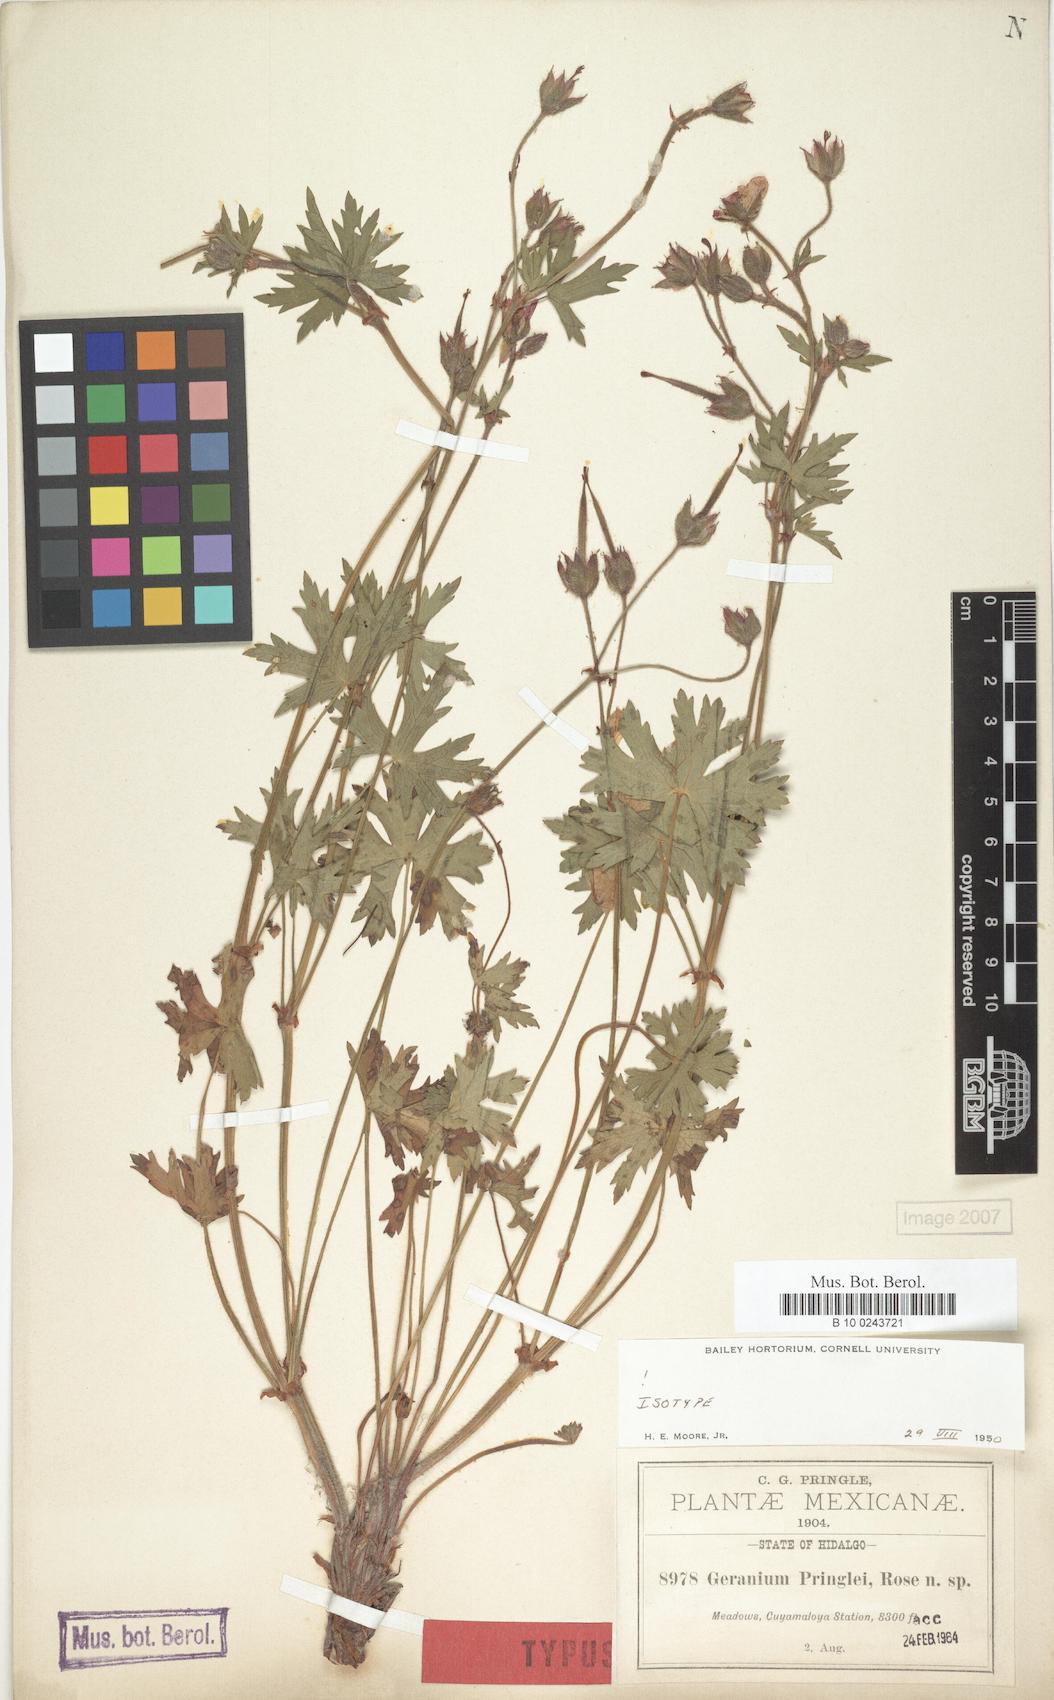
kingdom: Plantae
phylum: Tracheophyta
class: Magnoliopsida
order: Geraniales
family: Geraniaceae
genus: Geranium
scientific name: Geranium pringlei
